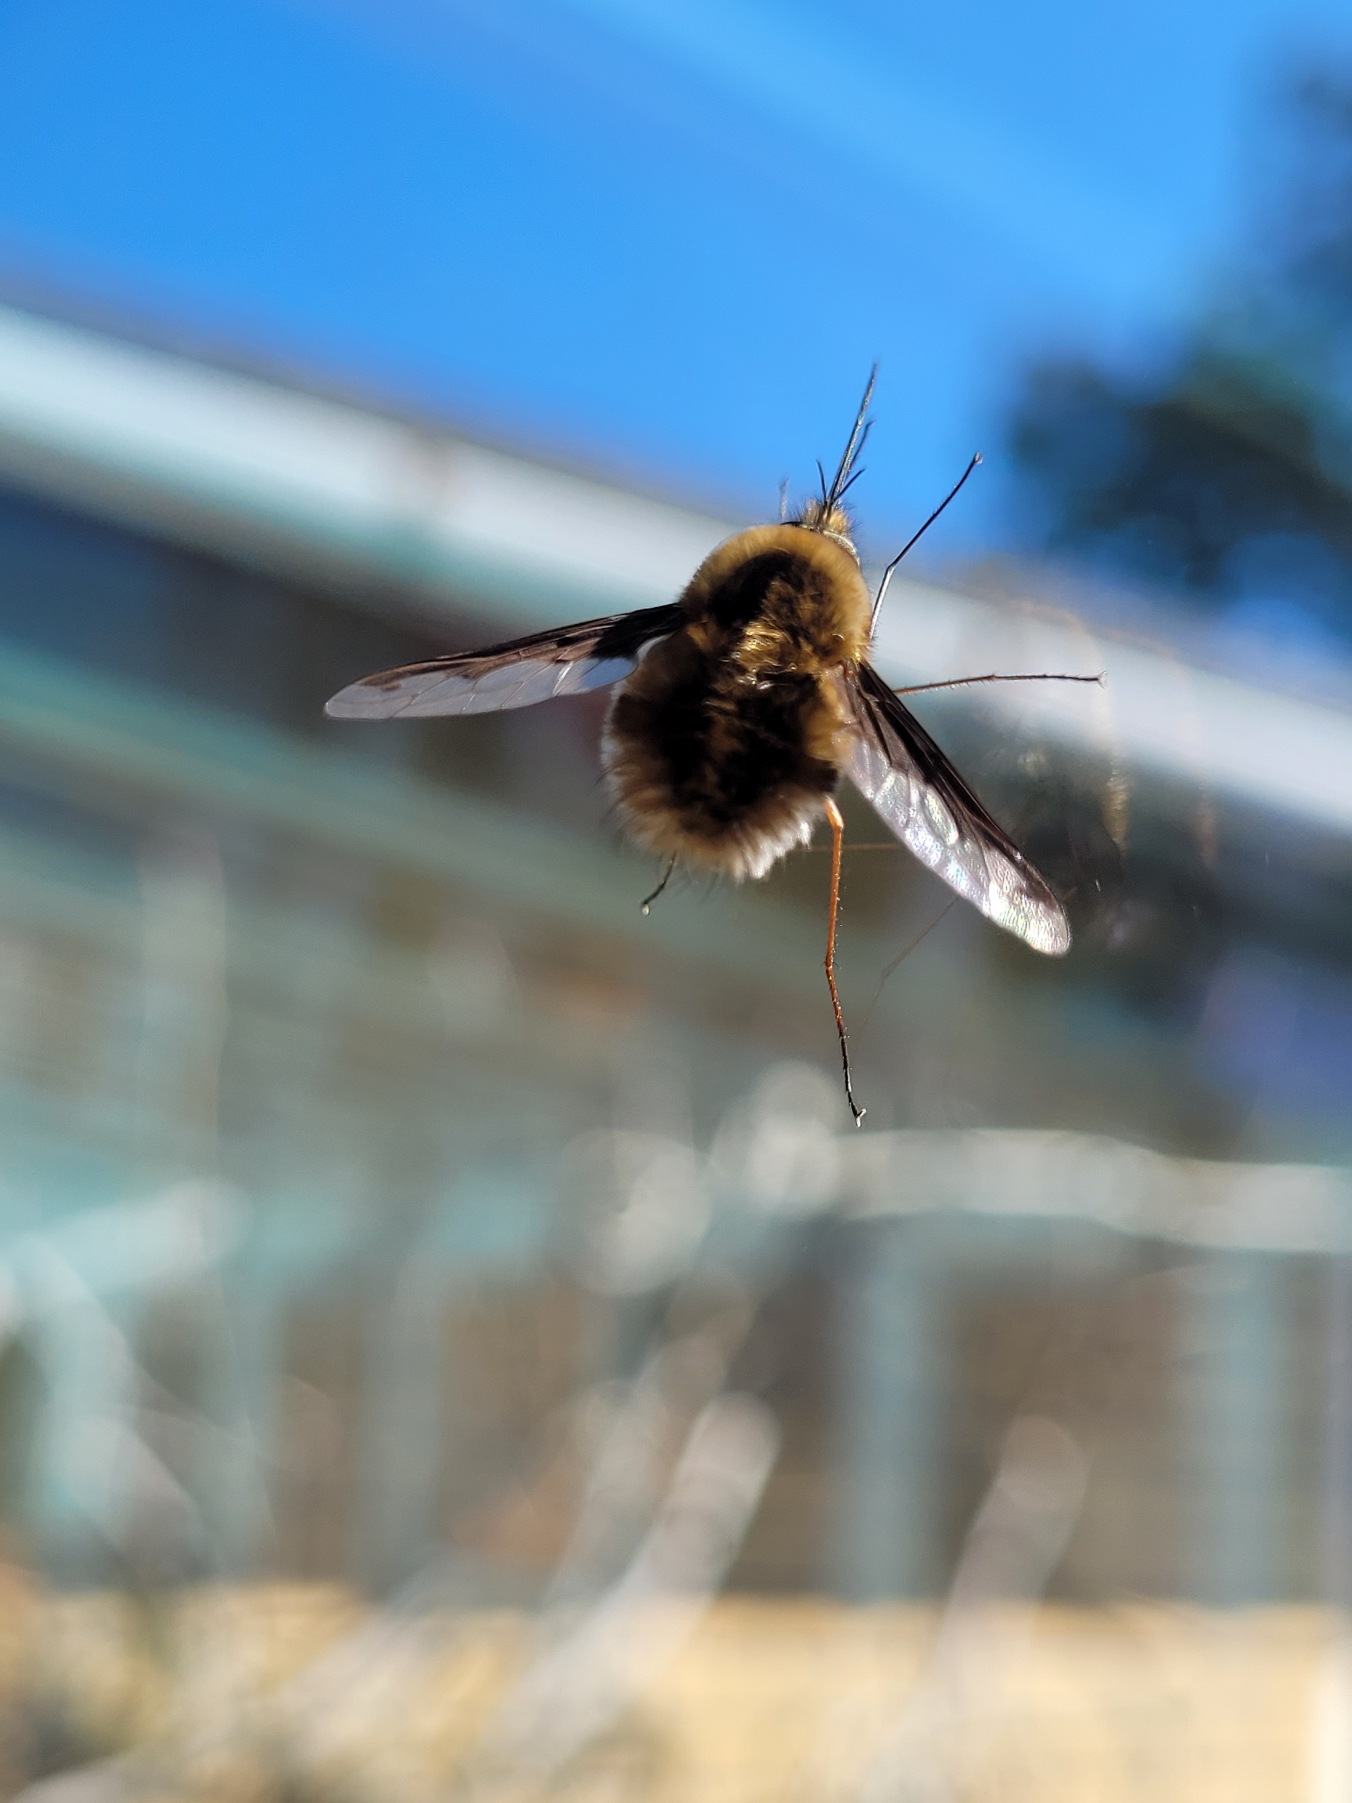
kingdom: Animalia
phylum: Arthropoda
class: Insecta
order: Diptera
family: Bombyliidae
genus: Bombylius
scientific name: Bombylius major
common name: Stor humleflue
